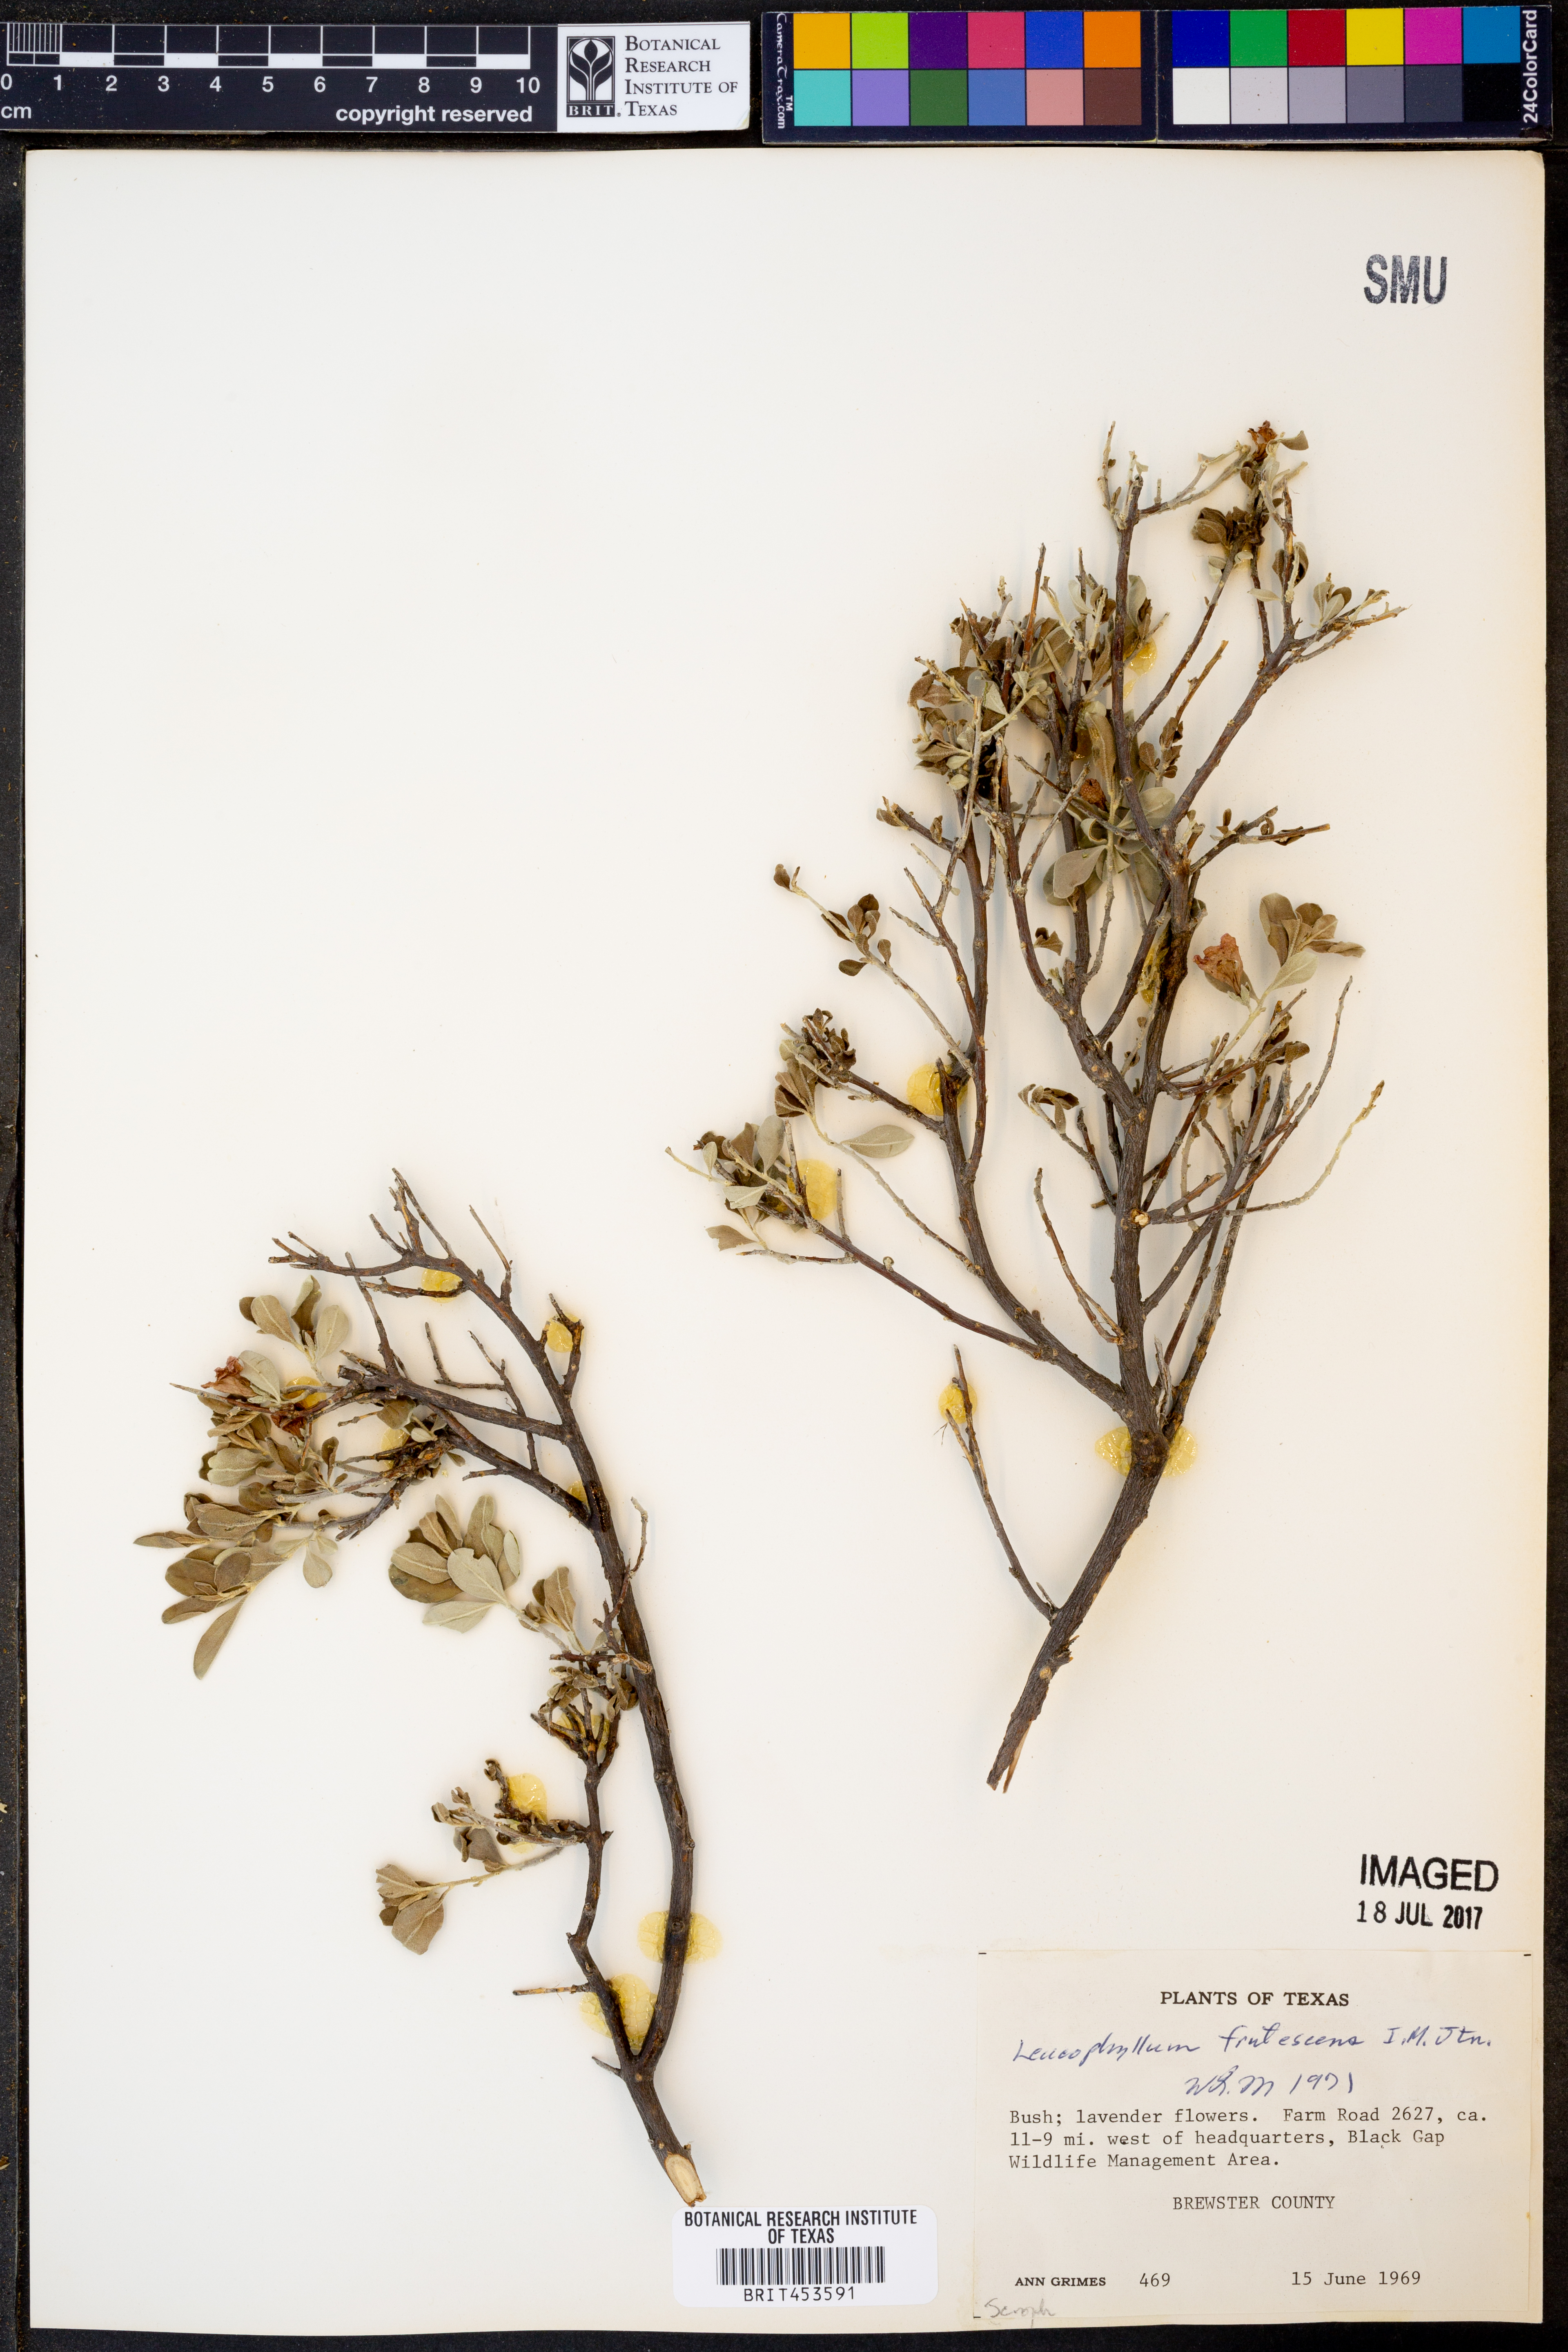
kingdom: Plantae
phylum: Tracheophyta
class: Magnoliopsida
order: Lamiales
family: Scrophulariaceae
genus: Leucophyllum
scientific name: Leucophyllum frutescens
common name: Texas silverleaf
